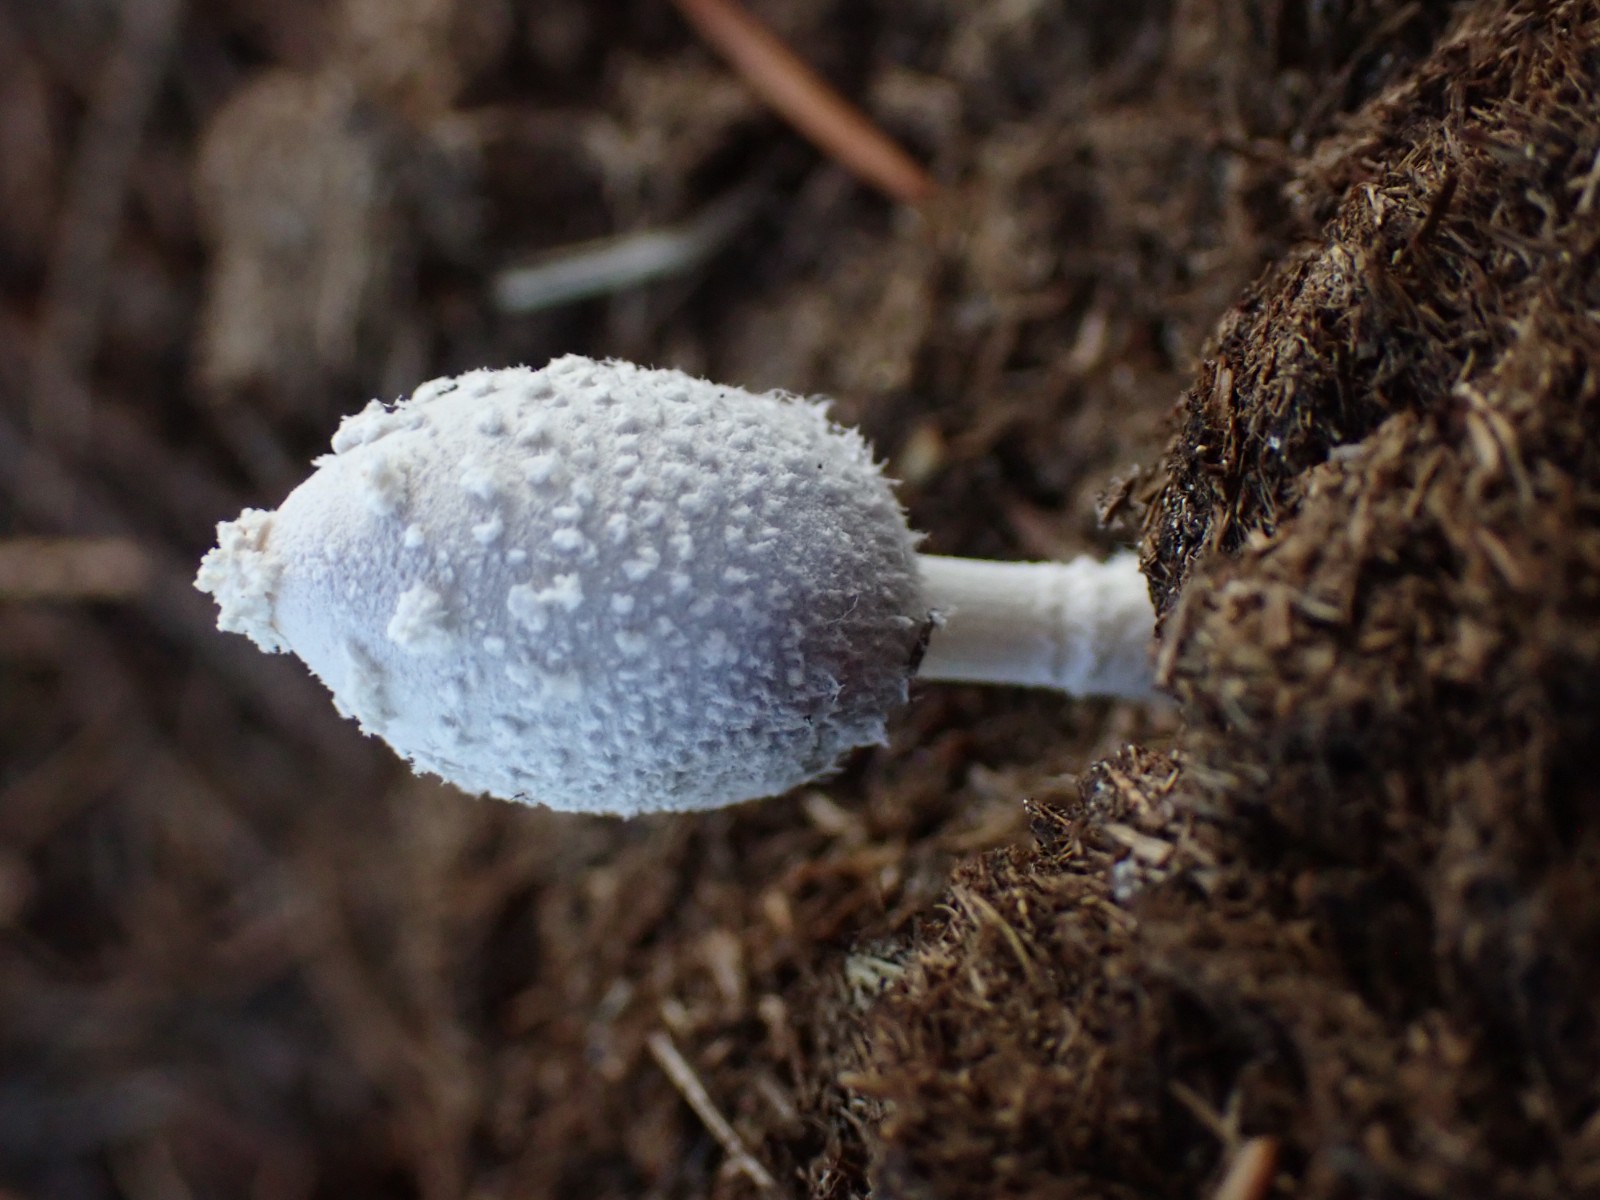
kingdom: Fungi
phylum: Basidiomycota
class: Agaricomycetes
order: Agaricales
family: Psathyrellaceae
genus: Coprinopsis
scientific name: Coprinopsis nivea
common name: snehvid blækhat
